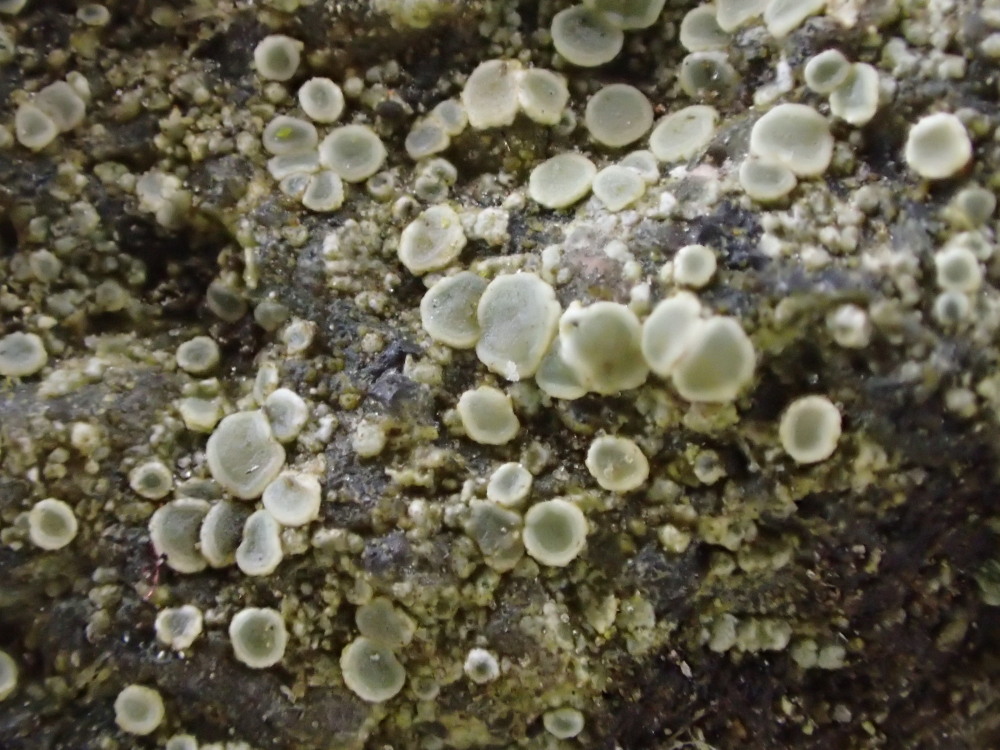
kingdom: Fungi
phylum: Ascomycota
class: Lecanoromycetes
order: Lecanorales
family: Lecanoraceae
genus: Lecanora
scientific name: Lecanora polytropa
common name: bleggrøn kantskivelav
